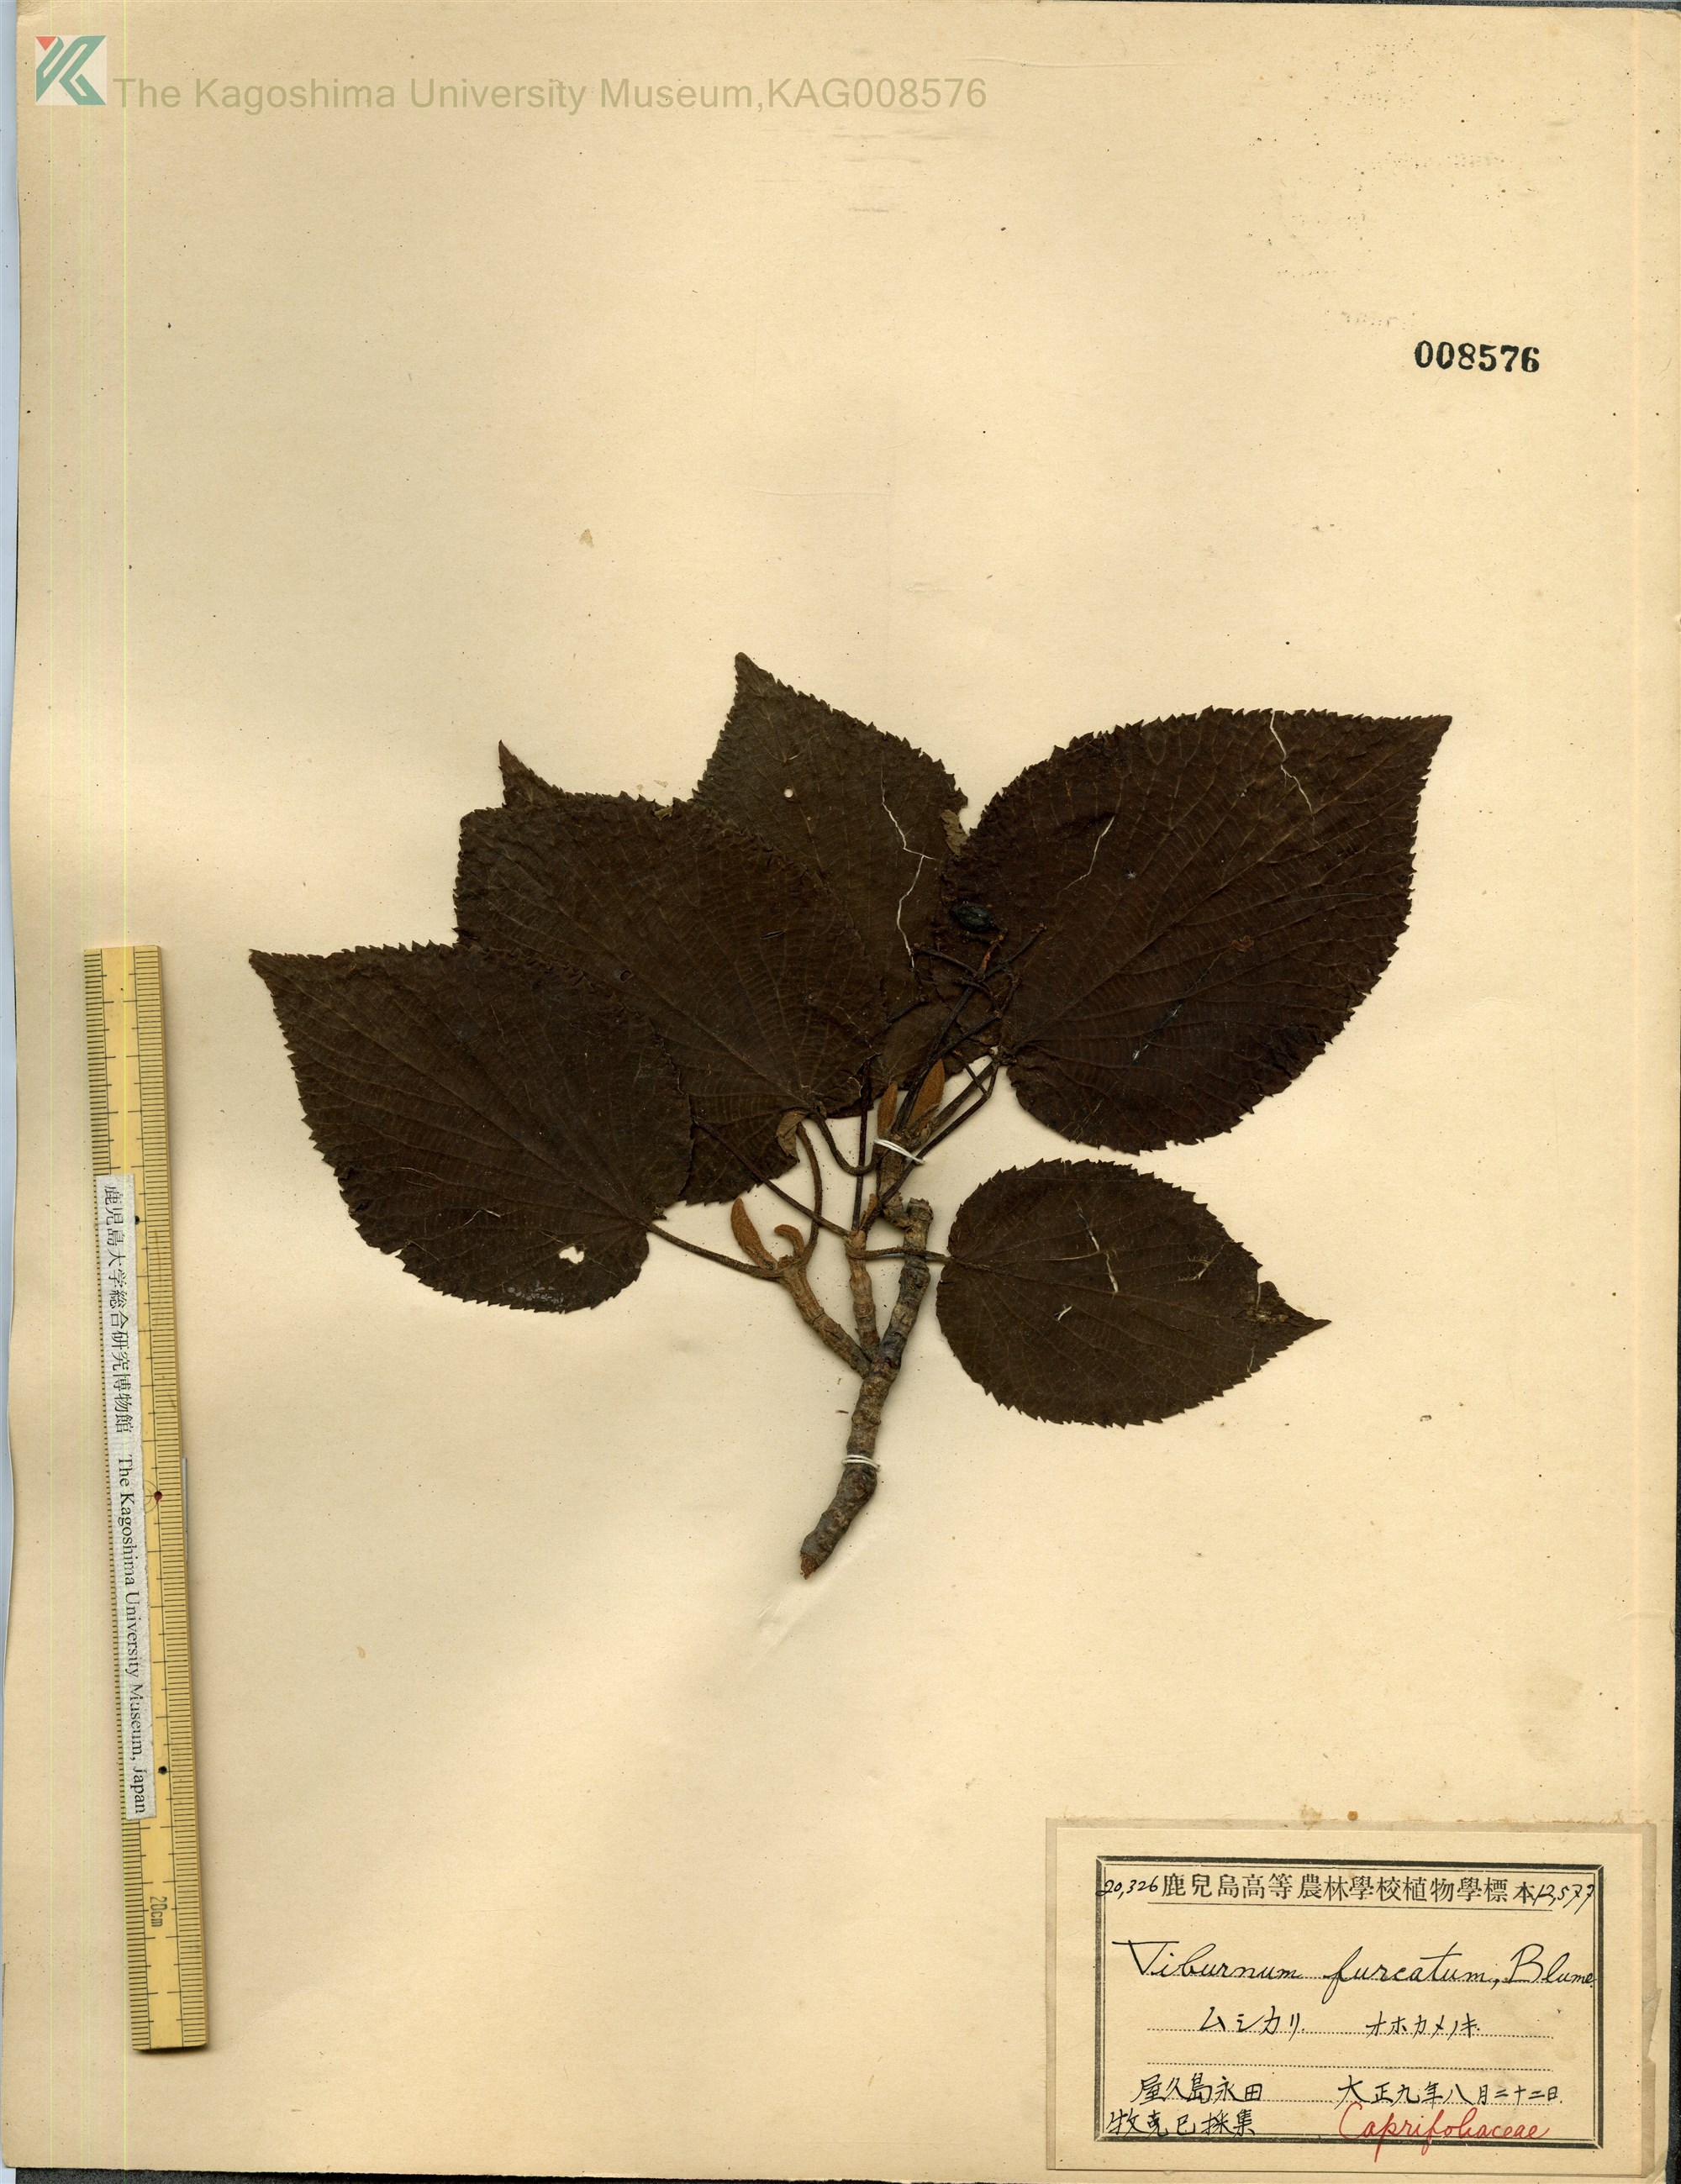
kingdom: Plantae
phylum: Tracheophyta
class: Magnoliopsida
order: Dipsacales
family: Viburnaceae
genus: Viburnum
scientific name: Viburnum furcatum
